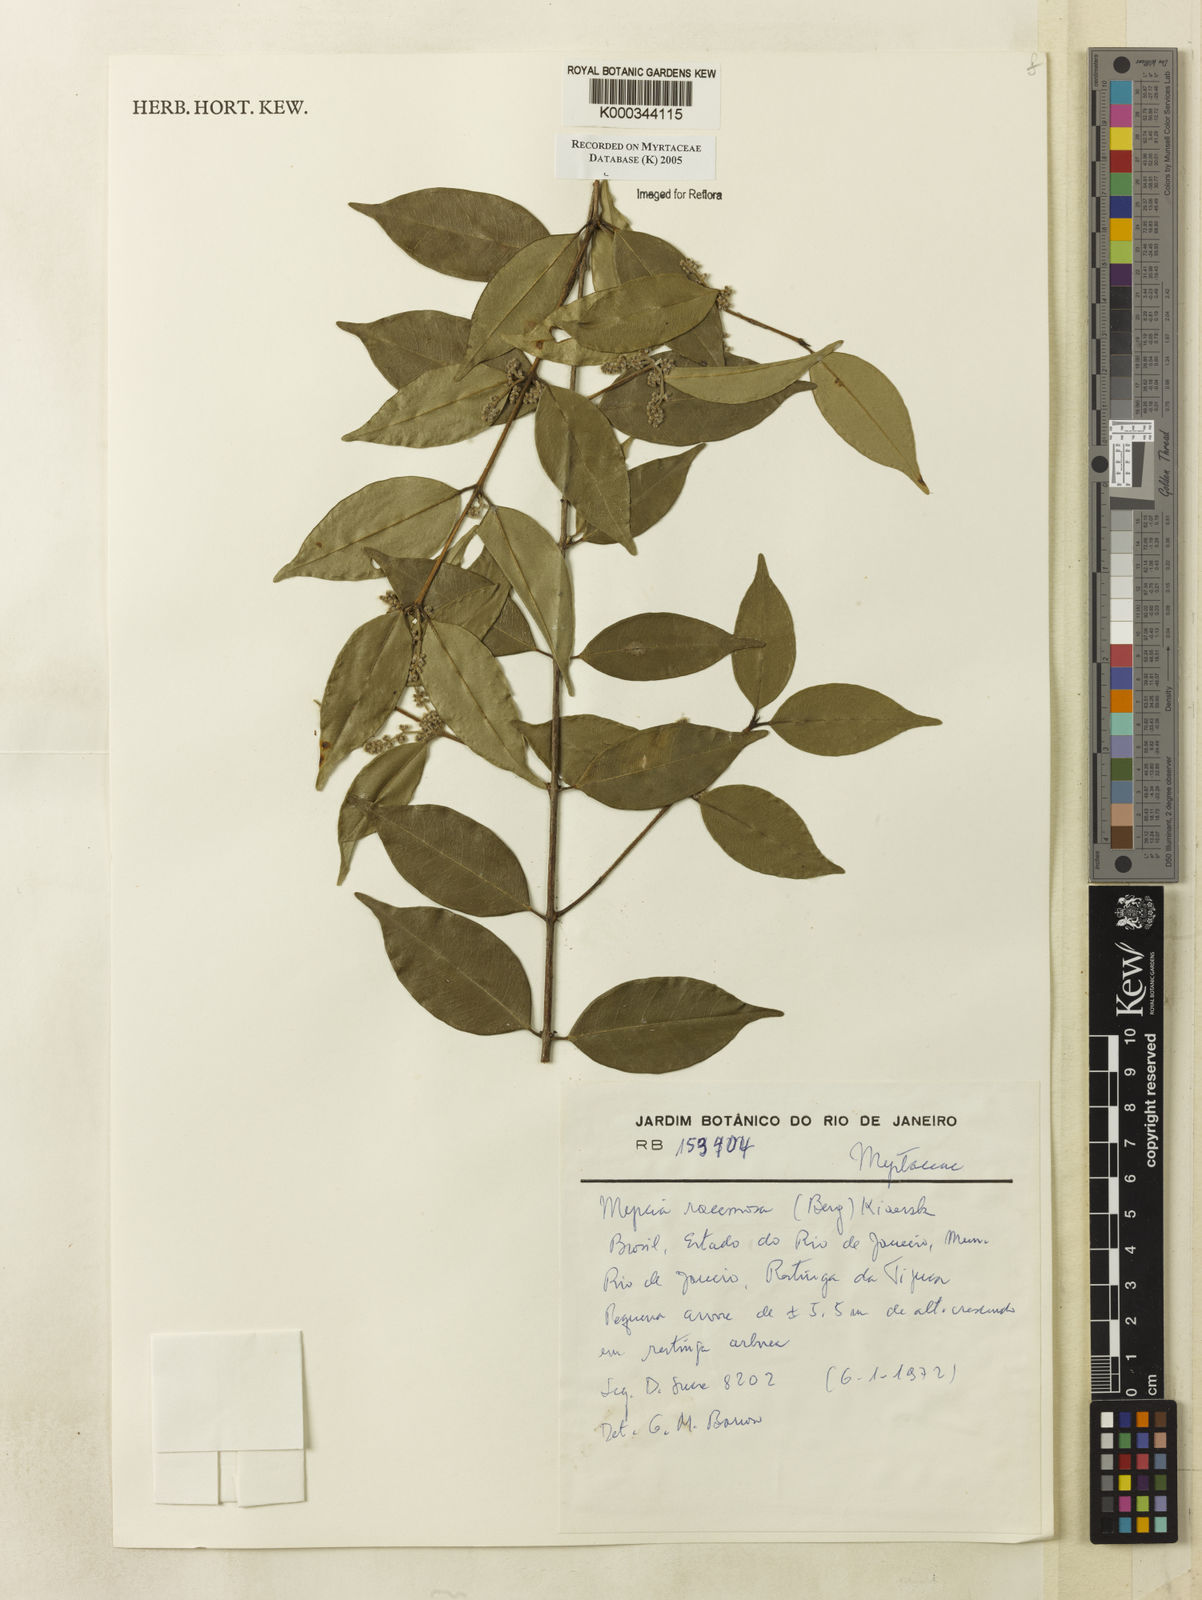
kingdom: Plantae
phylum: Tracheophyta
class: Magnoliopsida
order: Myrtales
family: Myrtaceae
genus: Myrcia
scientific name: Myrcia racemosa
